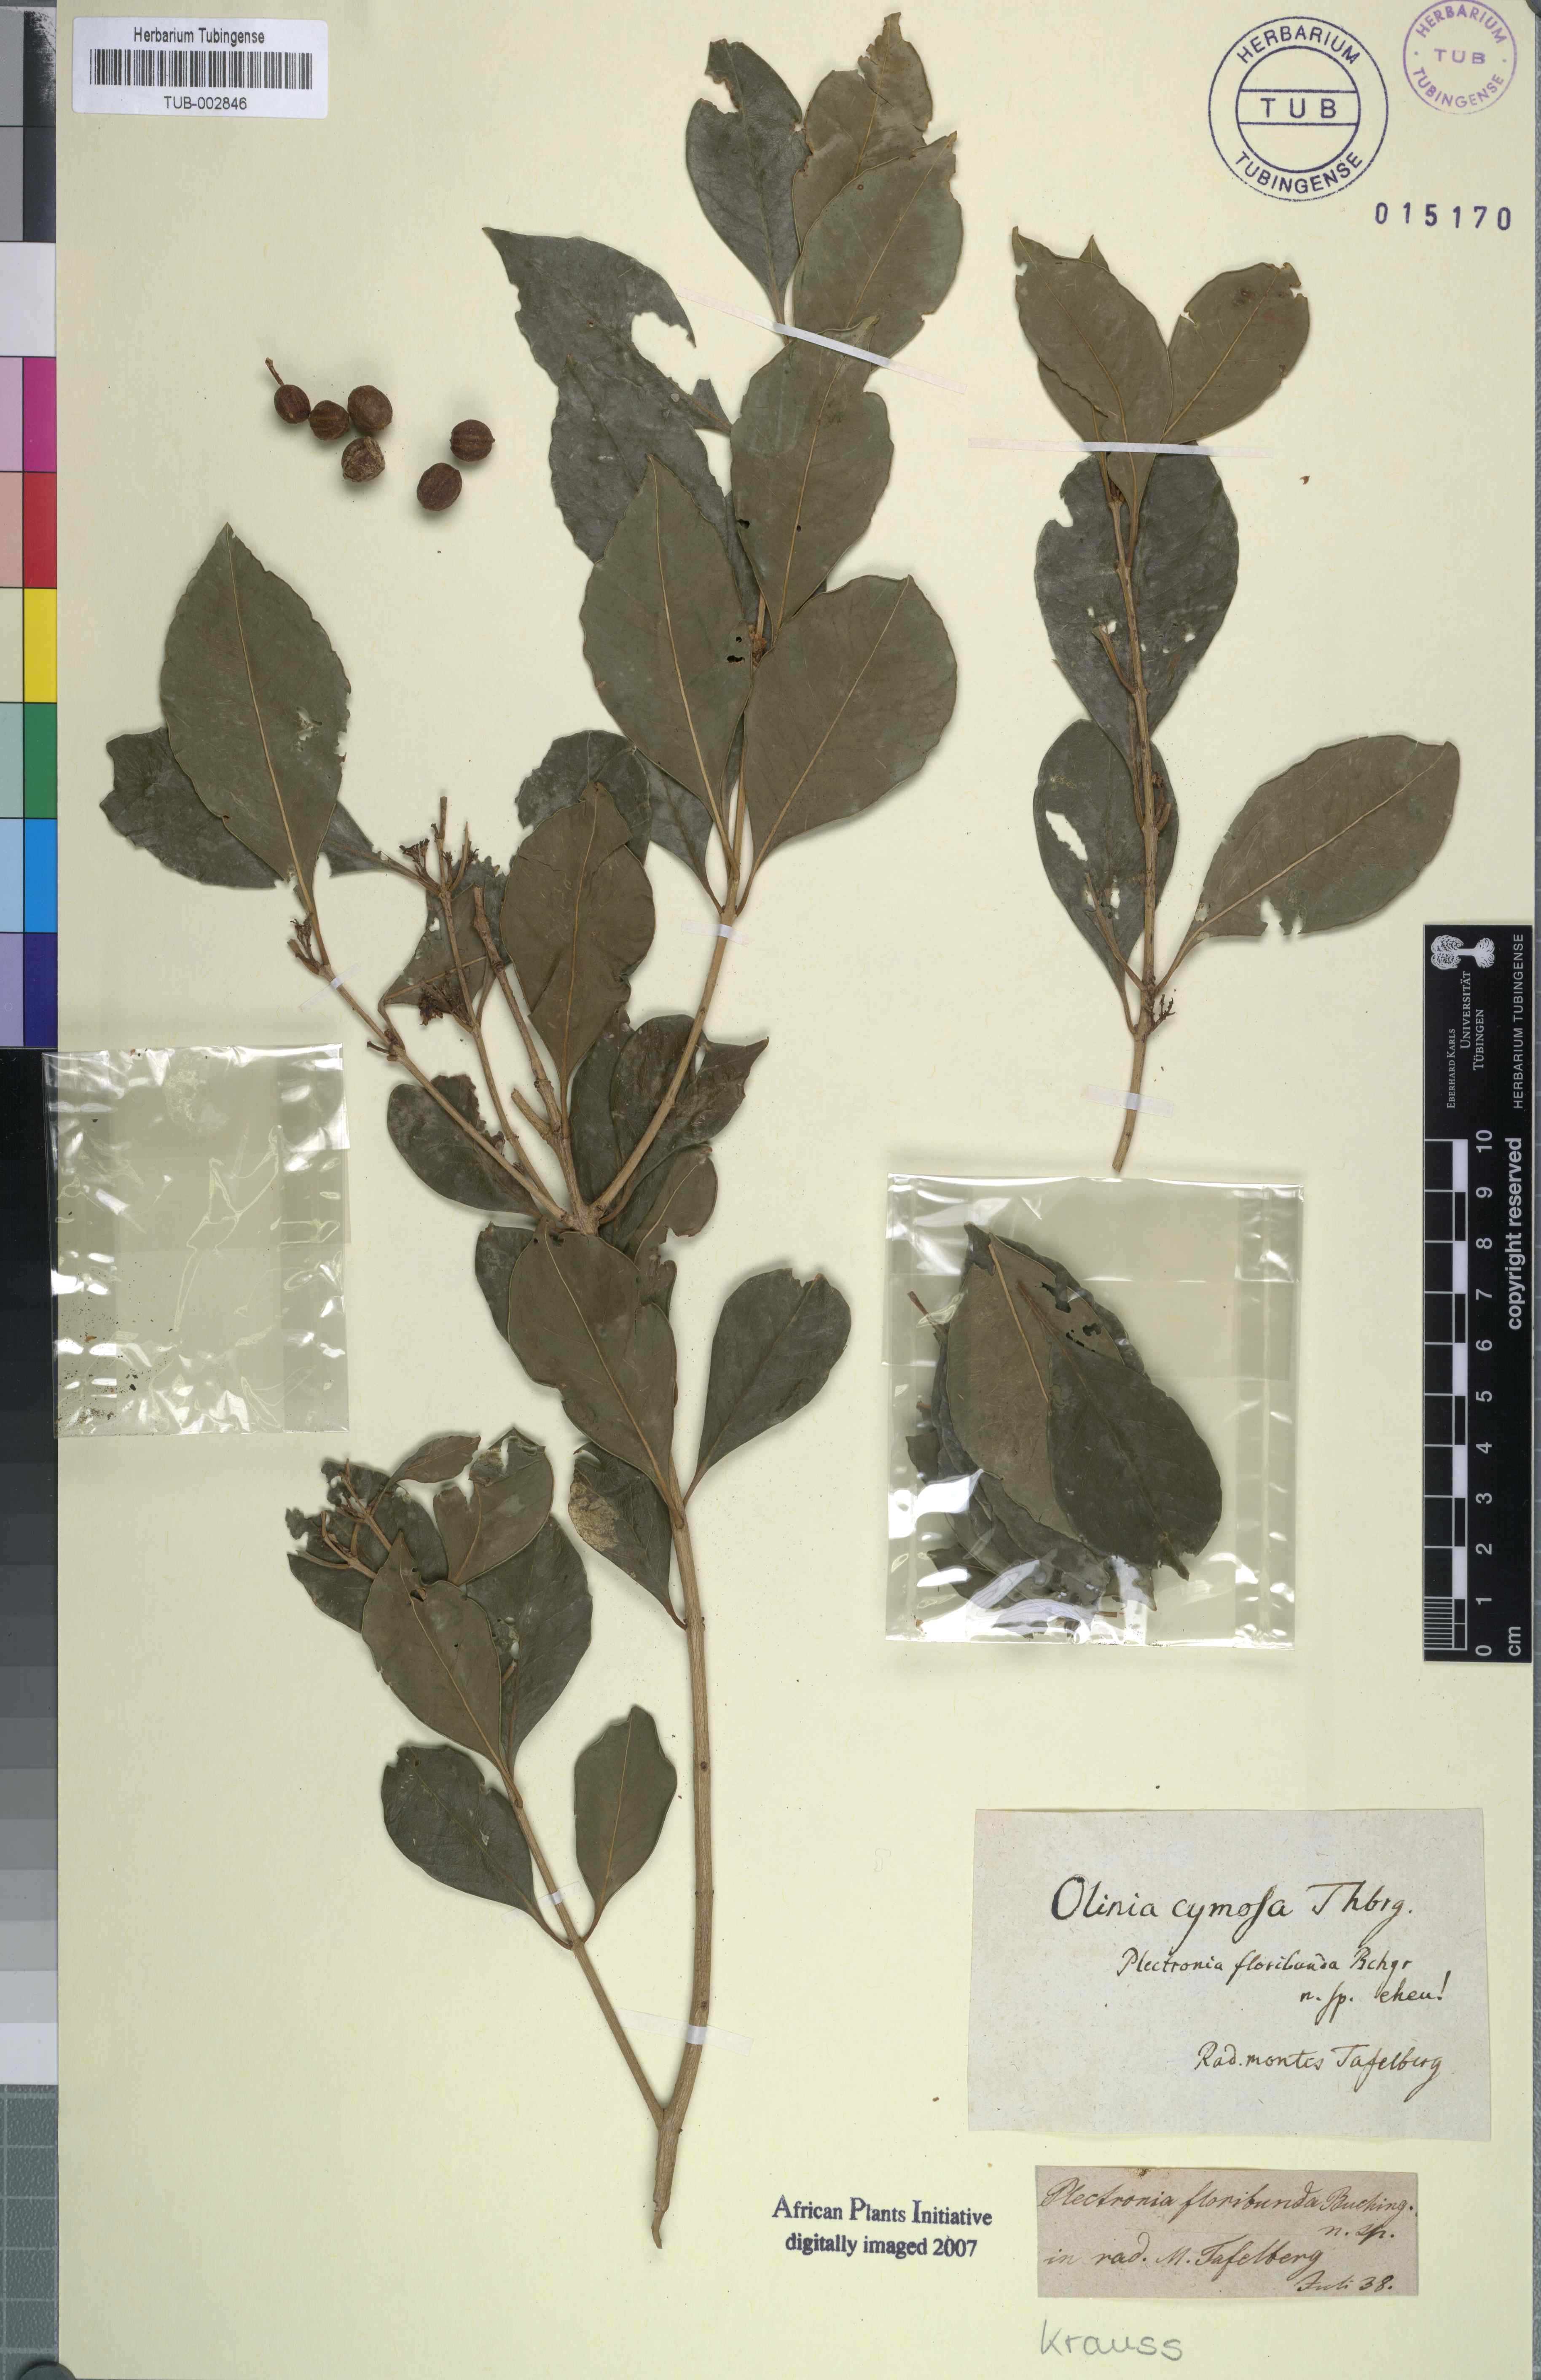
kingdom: Plantae
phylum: Tracheophyta
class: Magnoliopsida
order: Myrtales
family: Penaeaceae
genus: Olinia
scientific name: Olinia ventosa
